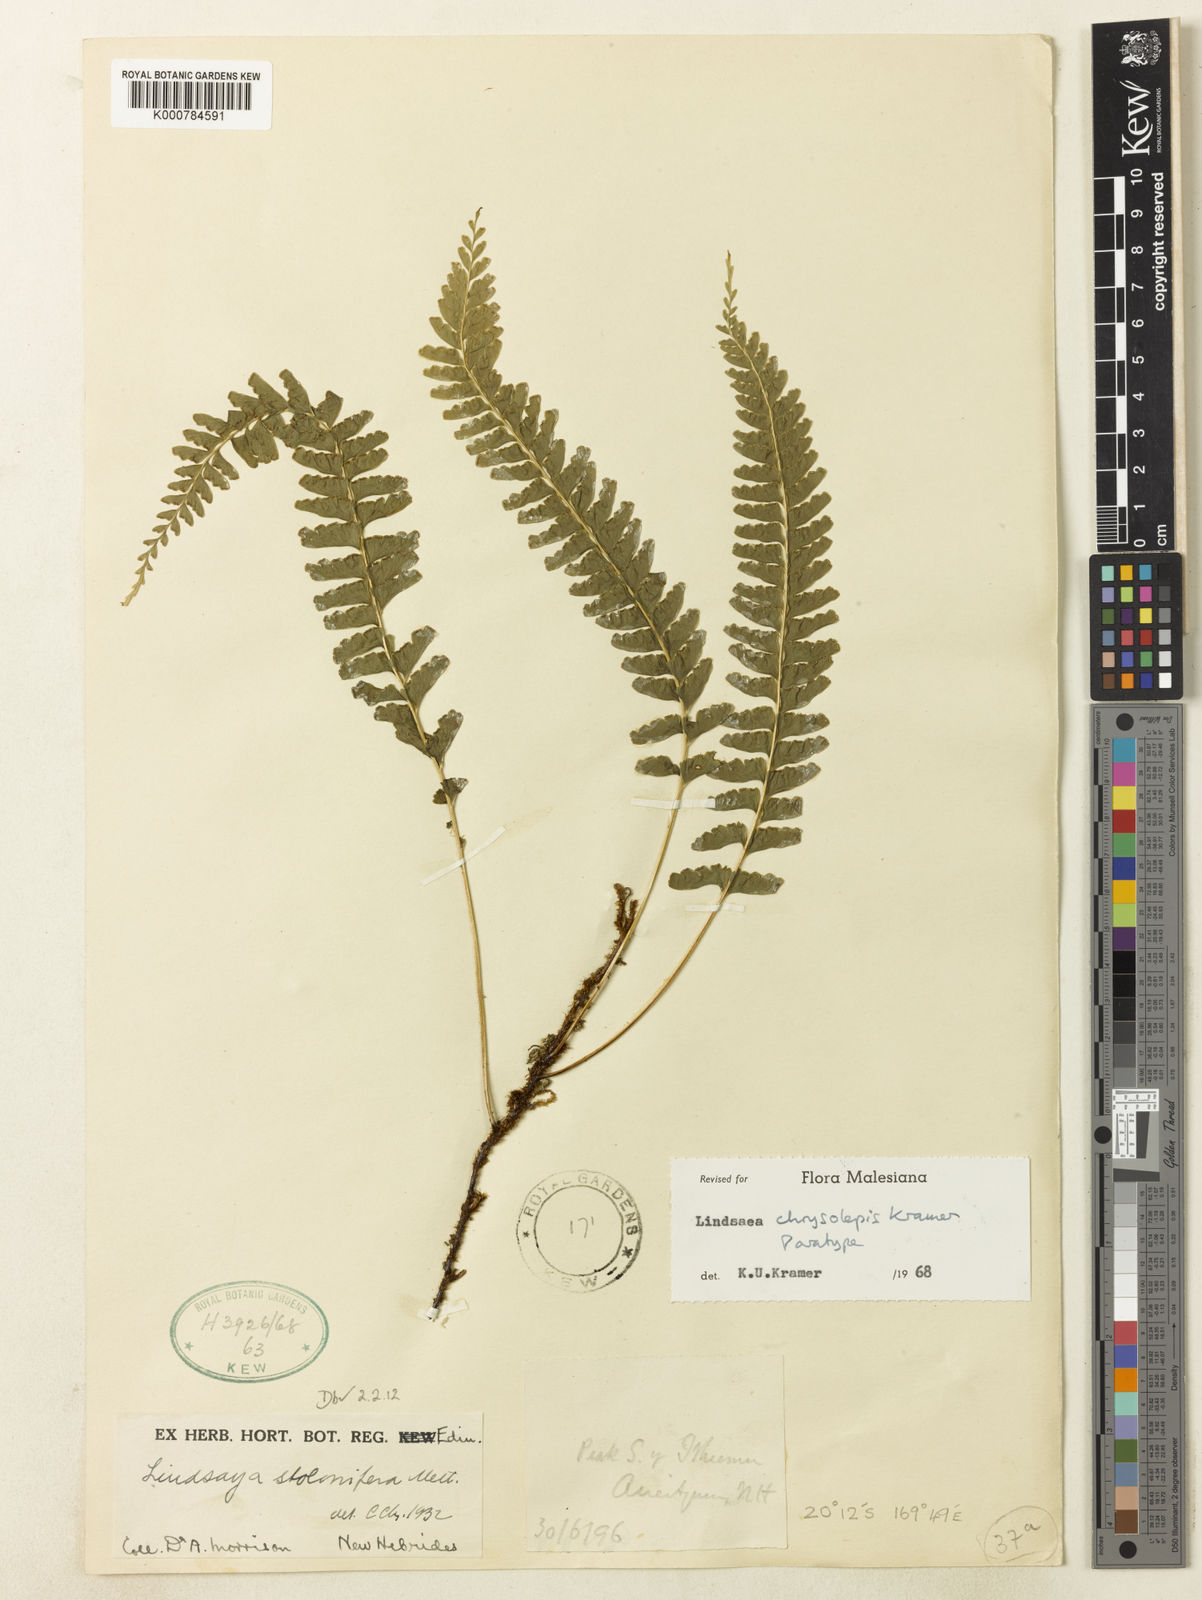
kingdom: Plantae
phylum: Tracheophyta
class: Polypodiopsida
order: Polypodiales
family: Lindsaeaceae
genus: Lindsaea
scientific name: Lindsaea chrysolepis
